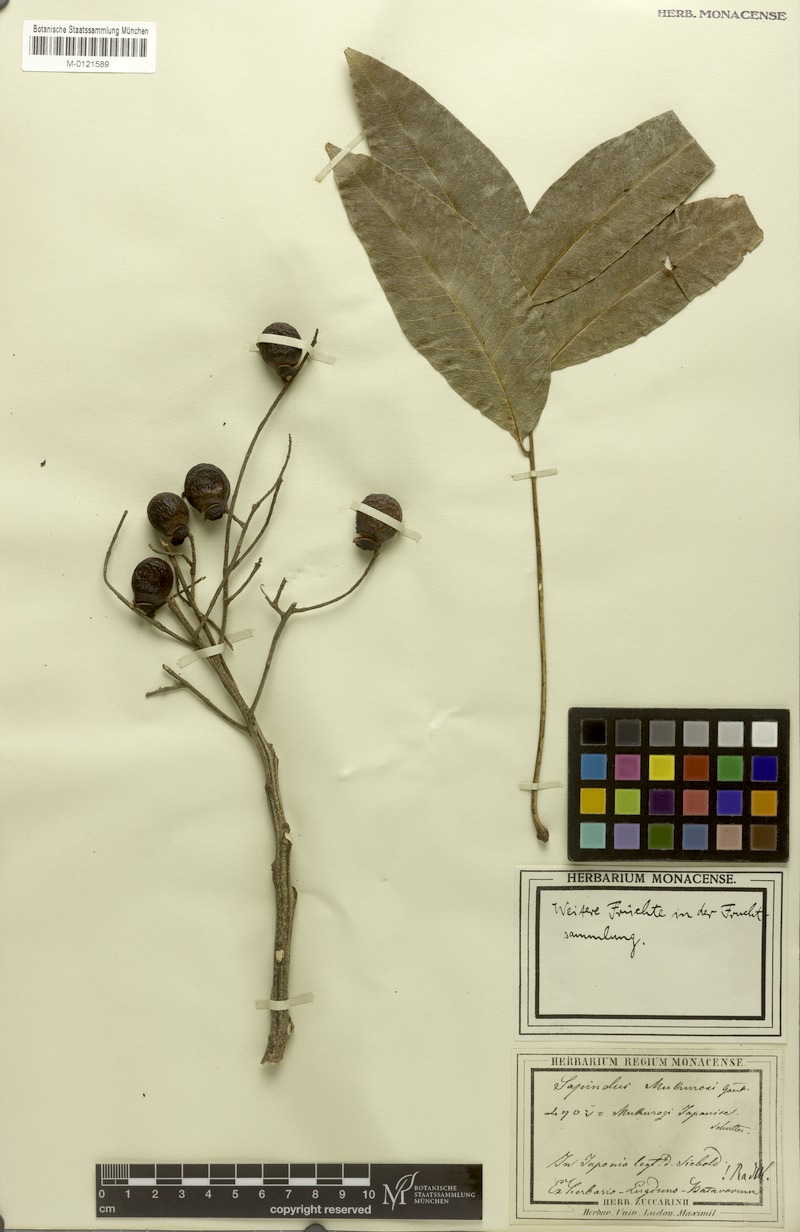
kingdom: Plantae
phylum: Tracheophyta
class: Magnoliopsida
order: Sapindales
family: Sapindaceae
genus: Sapindus
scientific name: Sapindus mukorossi
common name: Chinese soapberry
